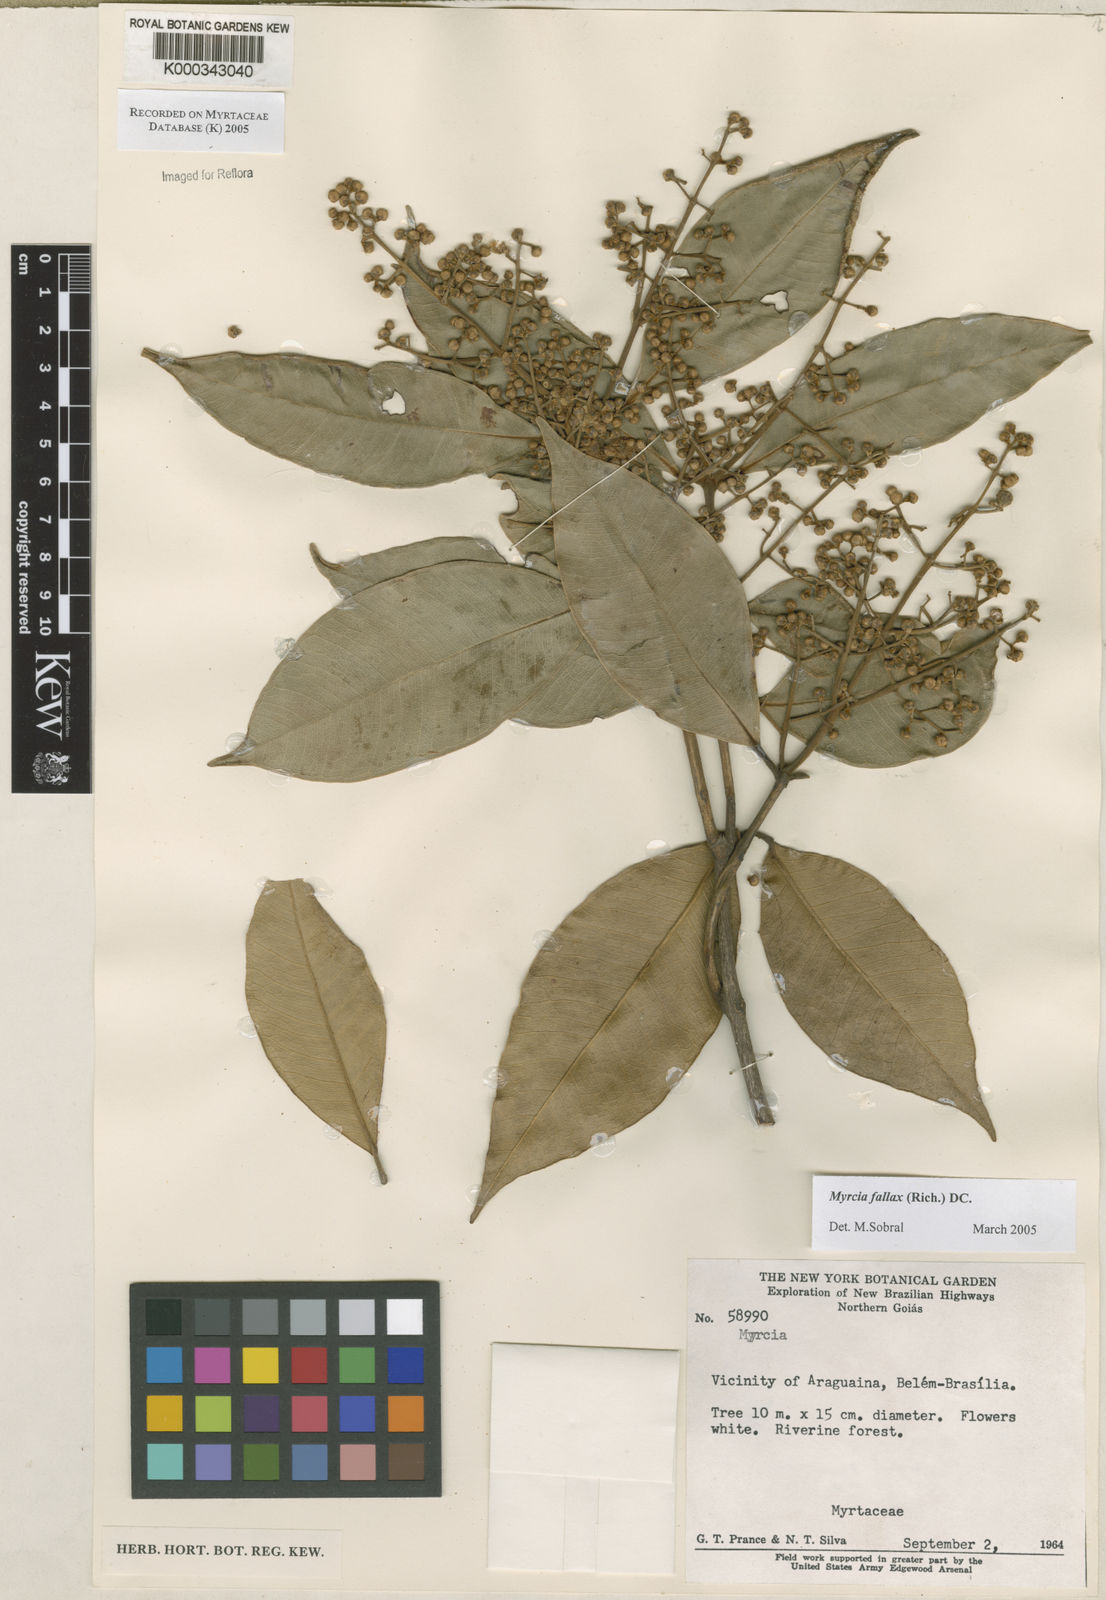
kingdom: Plantae
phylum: Tracheophyta
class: Magnoliopsida
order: Myrtales
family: Myrtaceae
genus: Myrcia
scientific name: Myrcia splendens
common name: Surinam cherry
